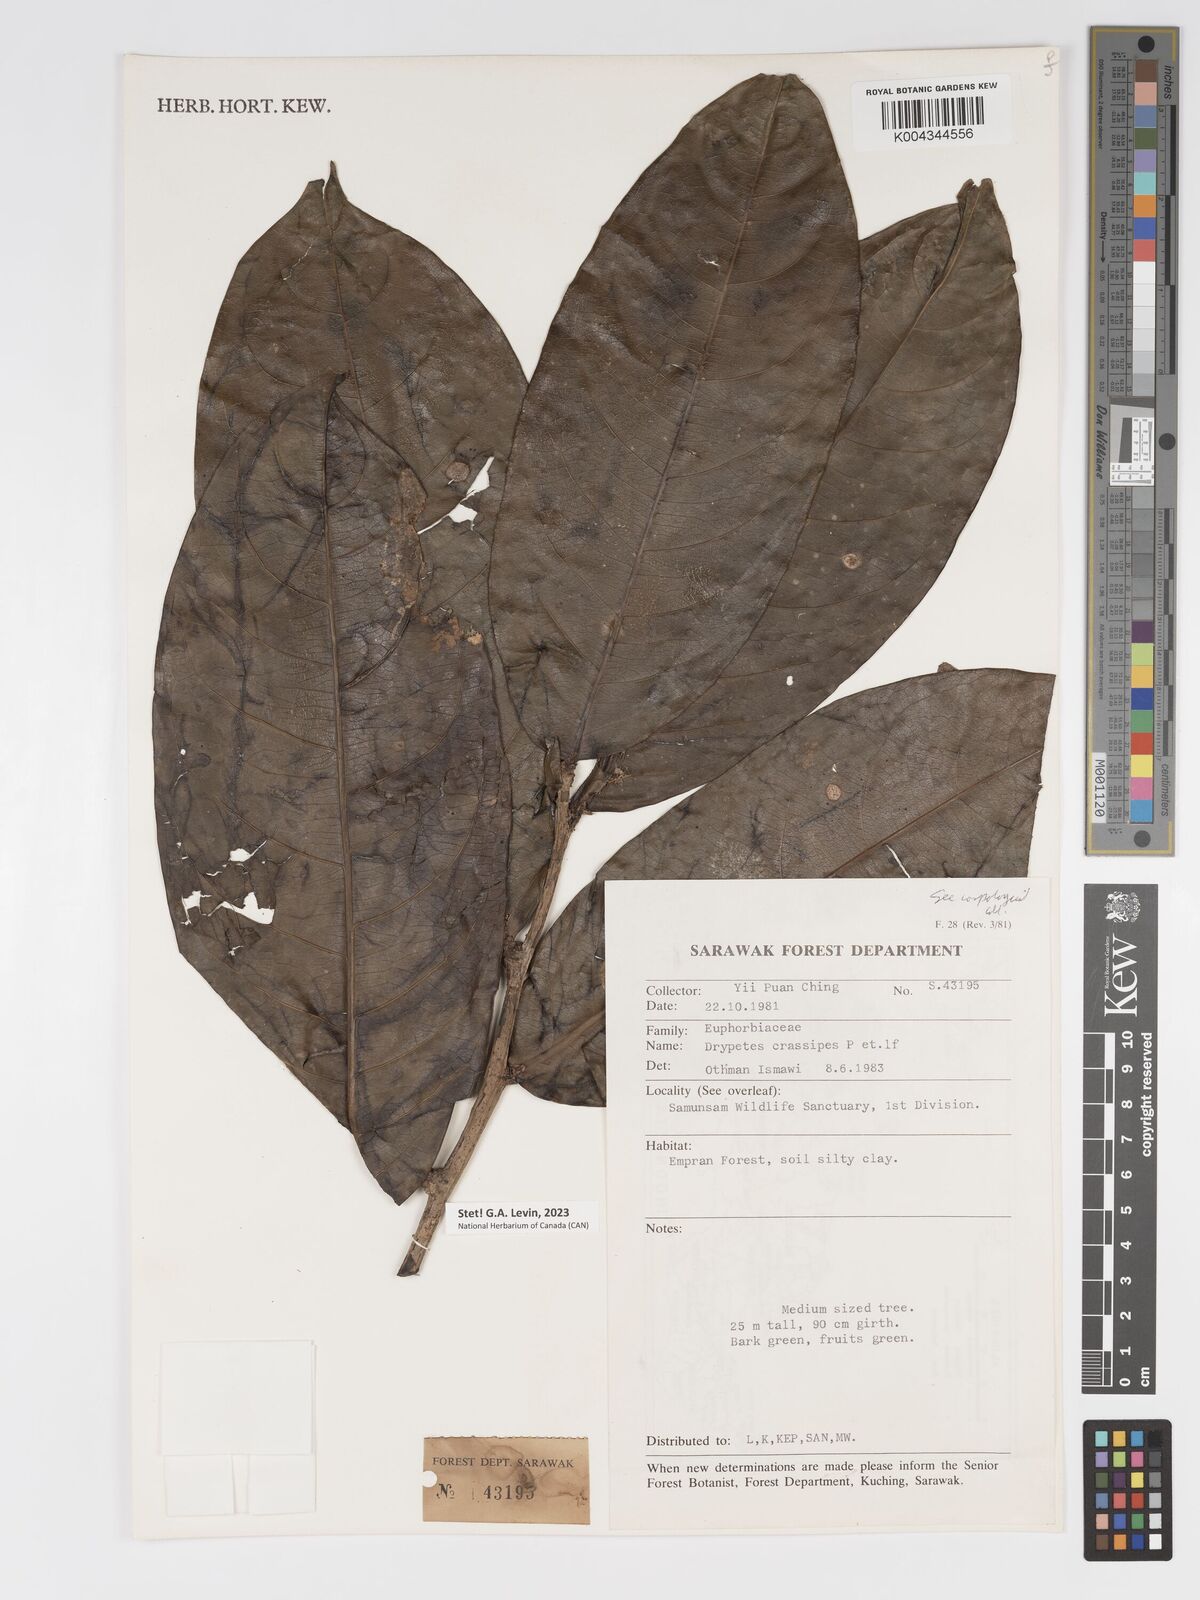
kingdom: Plantae
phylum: Tracheophyta
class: Magnoliopsida
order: Malpighiales
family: Putranjivaceae
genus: Drypetes
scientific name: Drypetes crassipes
